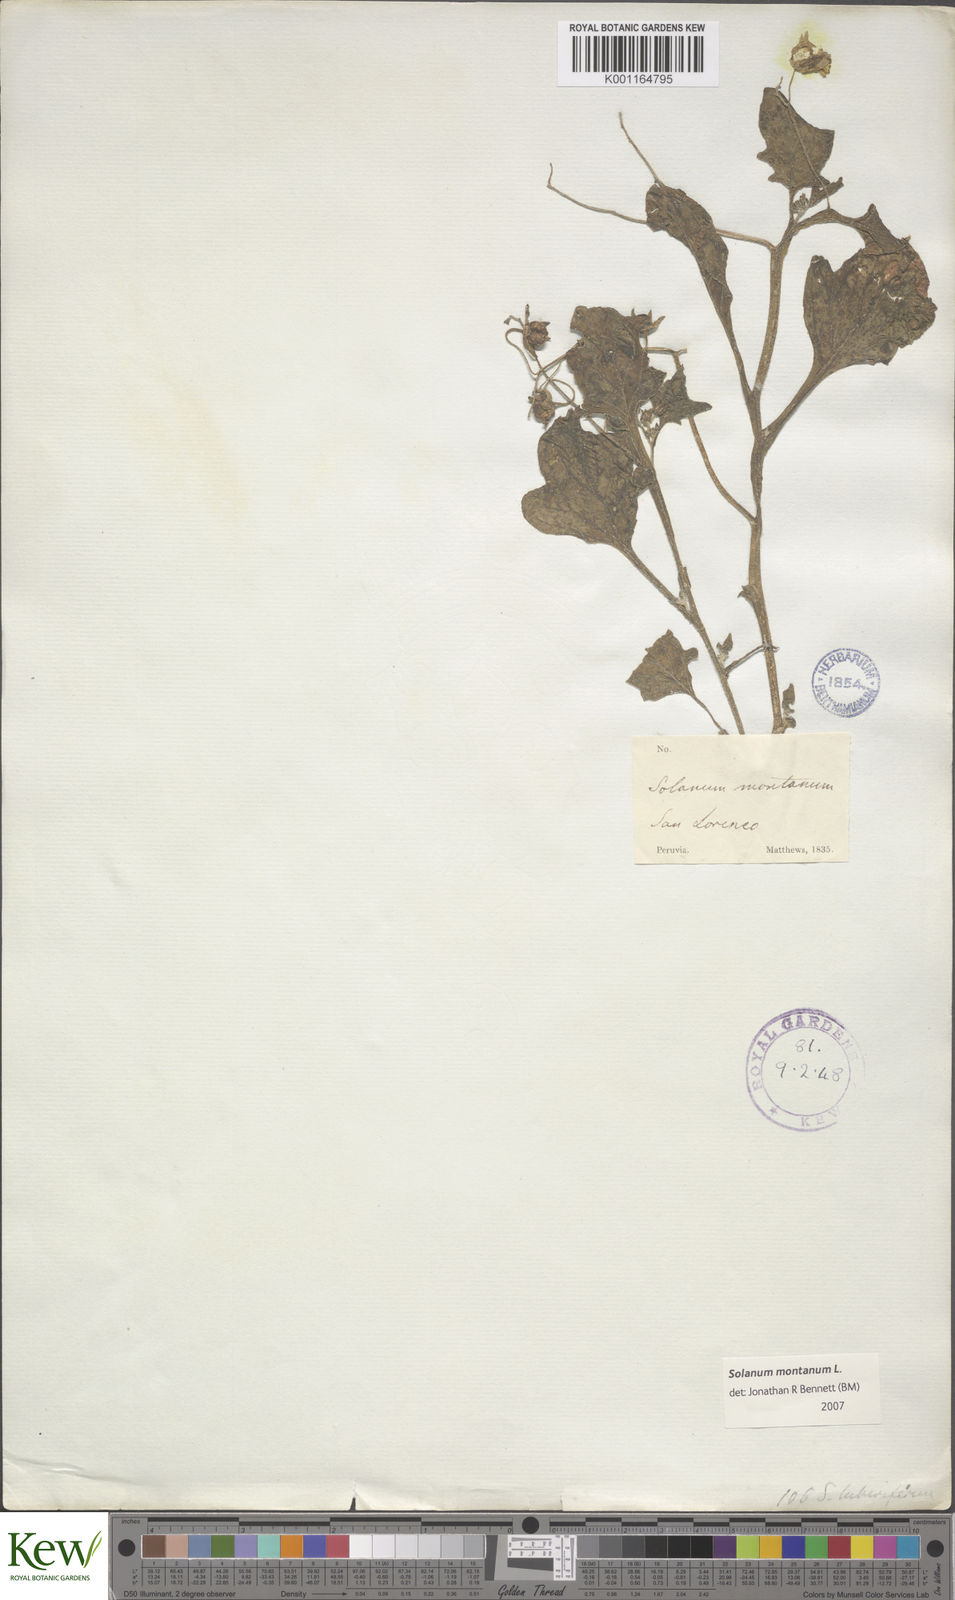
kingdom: Plantae
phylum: Tracheophyta
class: Magnoliopsida
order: Solanales
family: Solanaceae
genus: Solanum
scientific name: Solanum montanum
